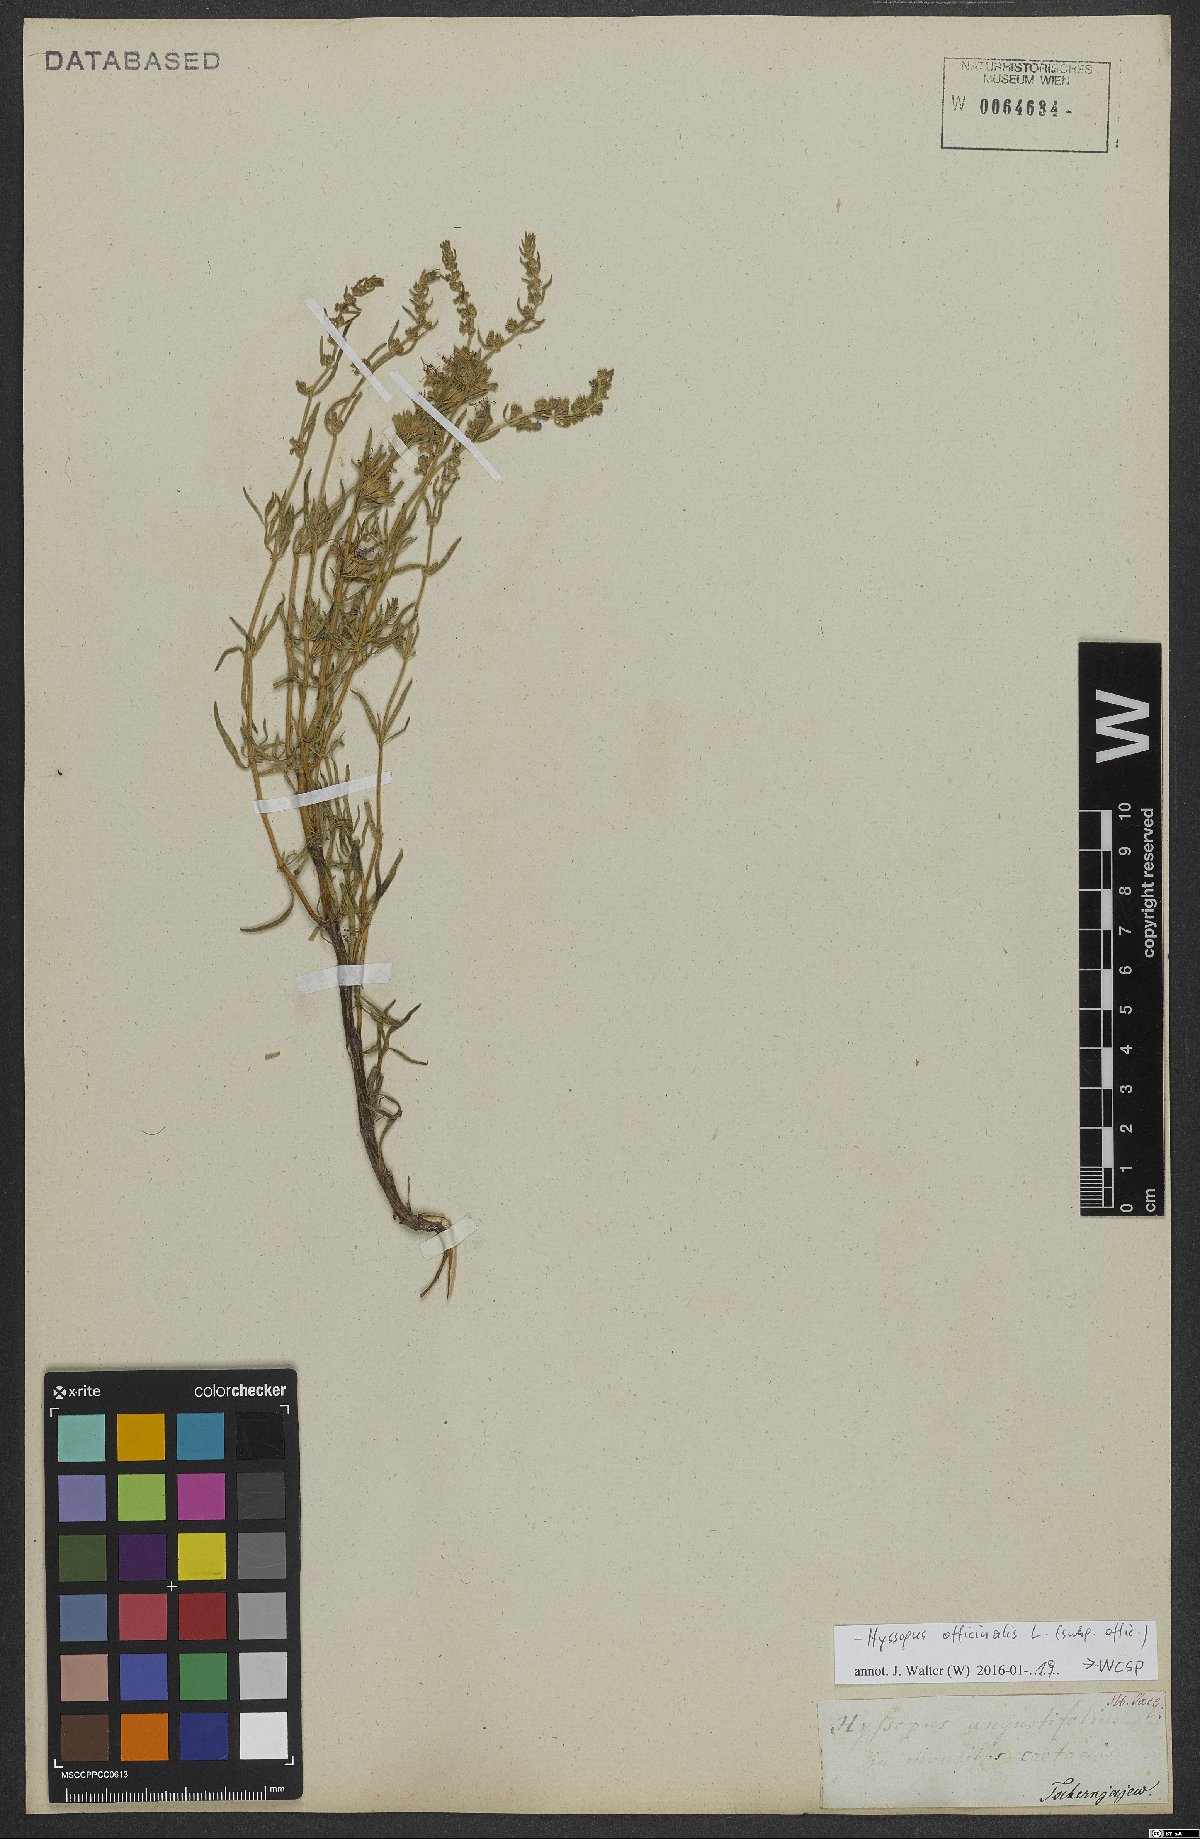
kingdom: Plantae
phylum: Tracheophyta
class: Magnoliopsida
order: Lamiales
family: Lamiaceae
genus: Hyssopus
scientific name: Hyssopus officinalis
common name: Hyssop
